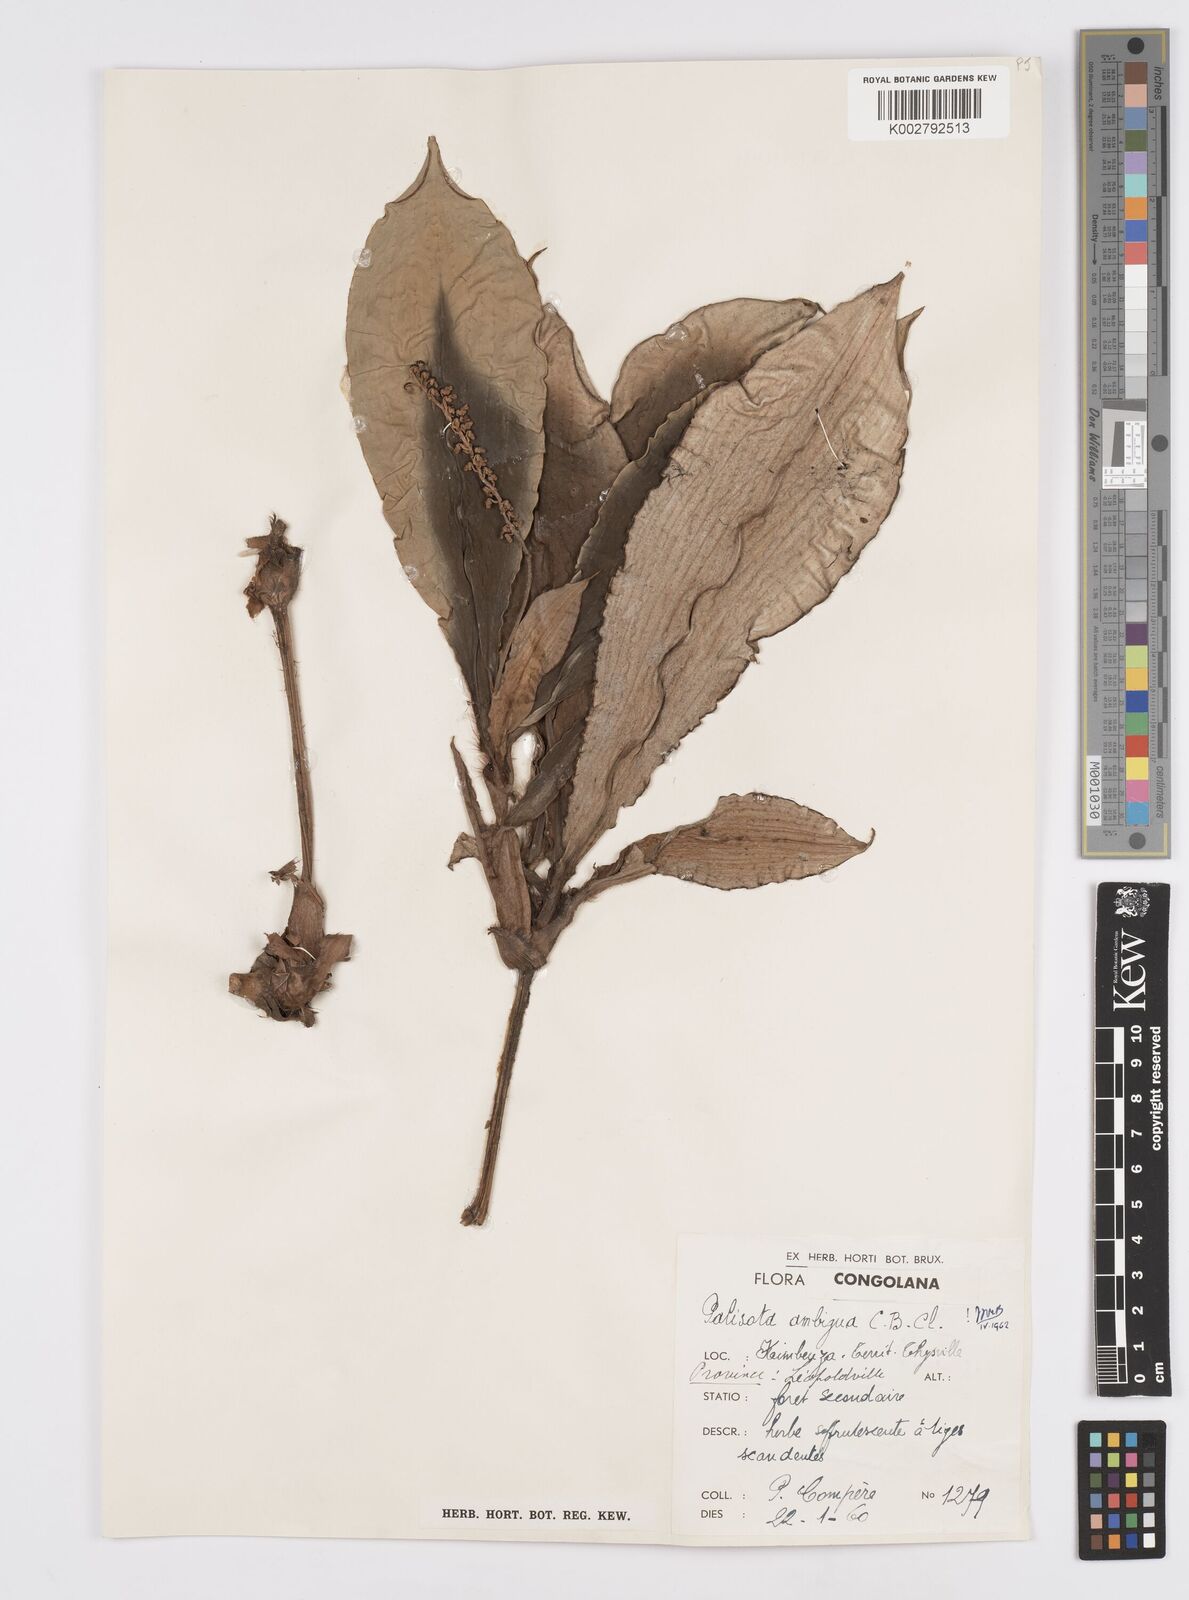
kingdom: Plantae
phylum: Tracheophyta
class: Liliopsida
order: Commelinales
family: Commelinaceae
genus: Palisota
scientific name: Palisota ambigua
